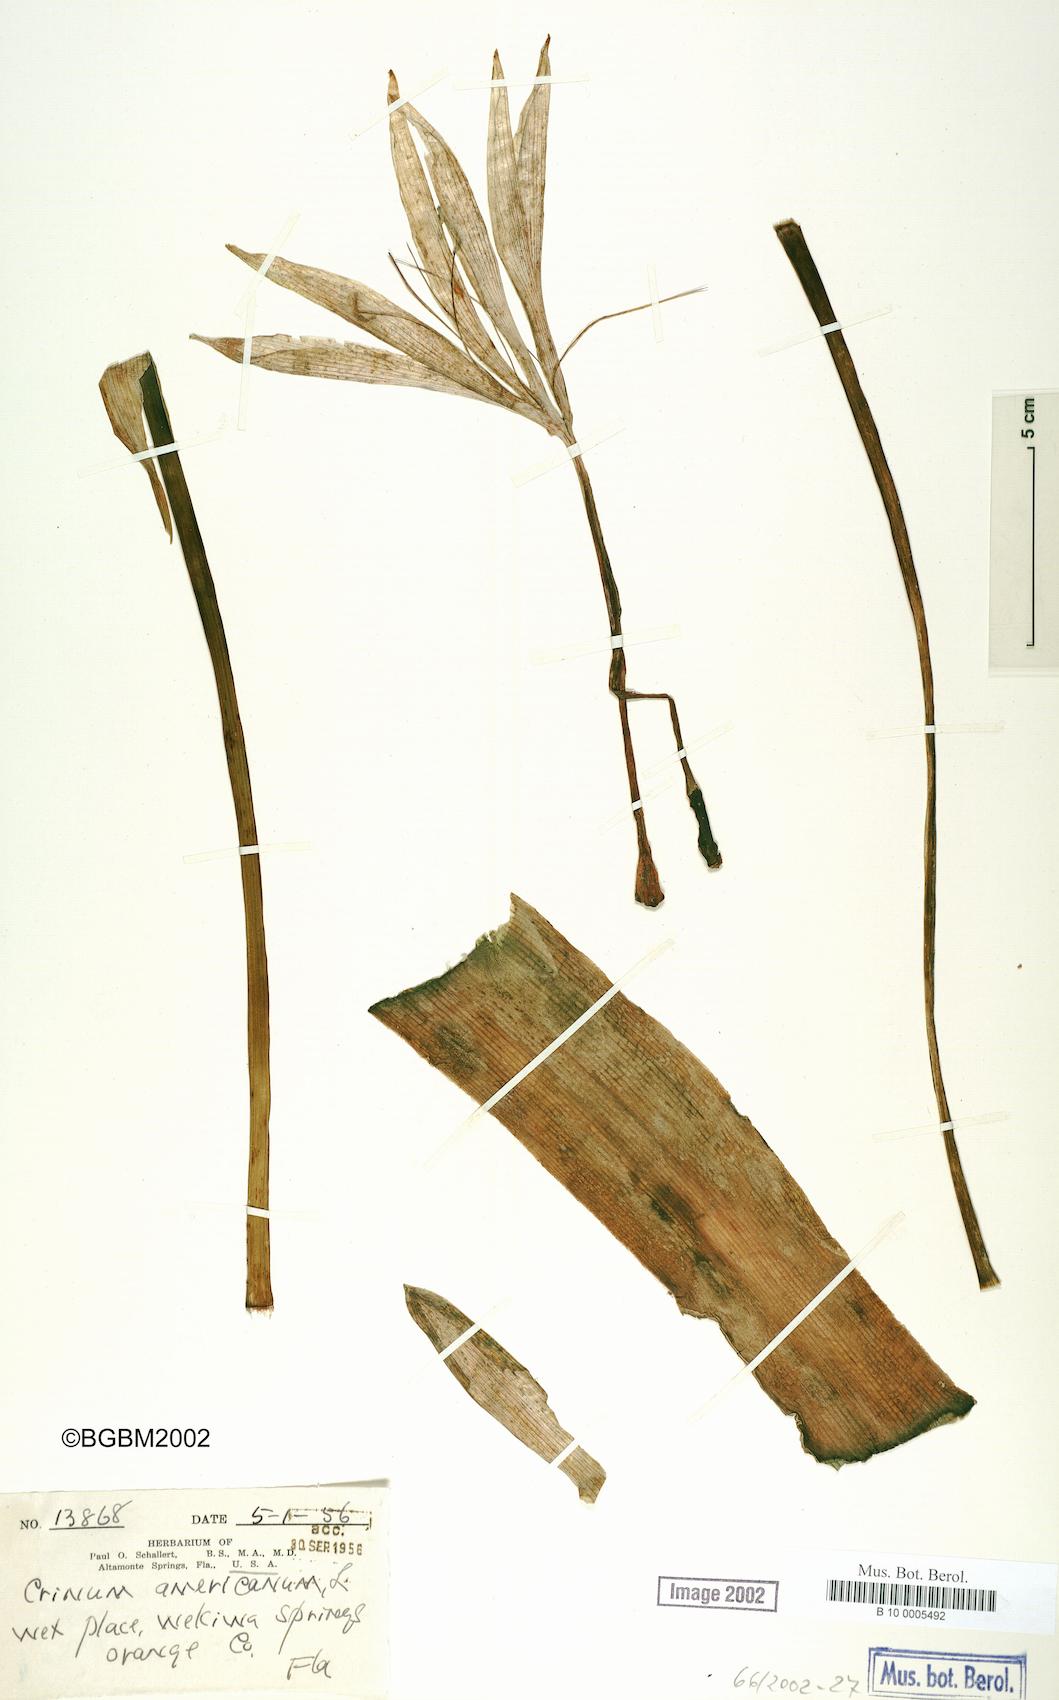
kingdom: Plantae
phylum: Tracheophyta
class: Liliopsida
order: Asparagales
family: Amaryllidaceae
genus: Crinum
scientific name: Crinum americanum
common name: Florida swamp-lily
